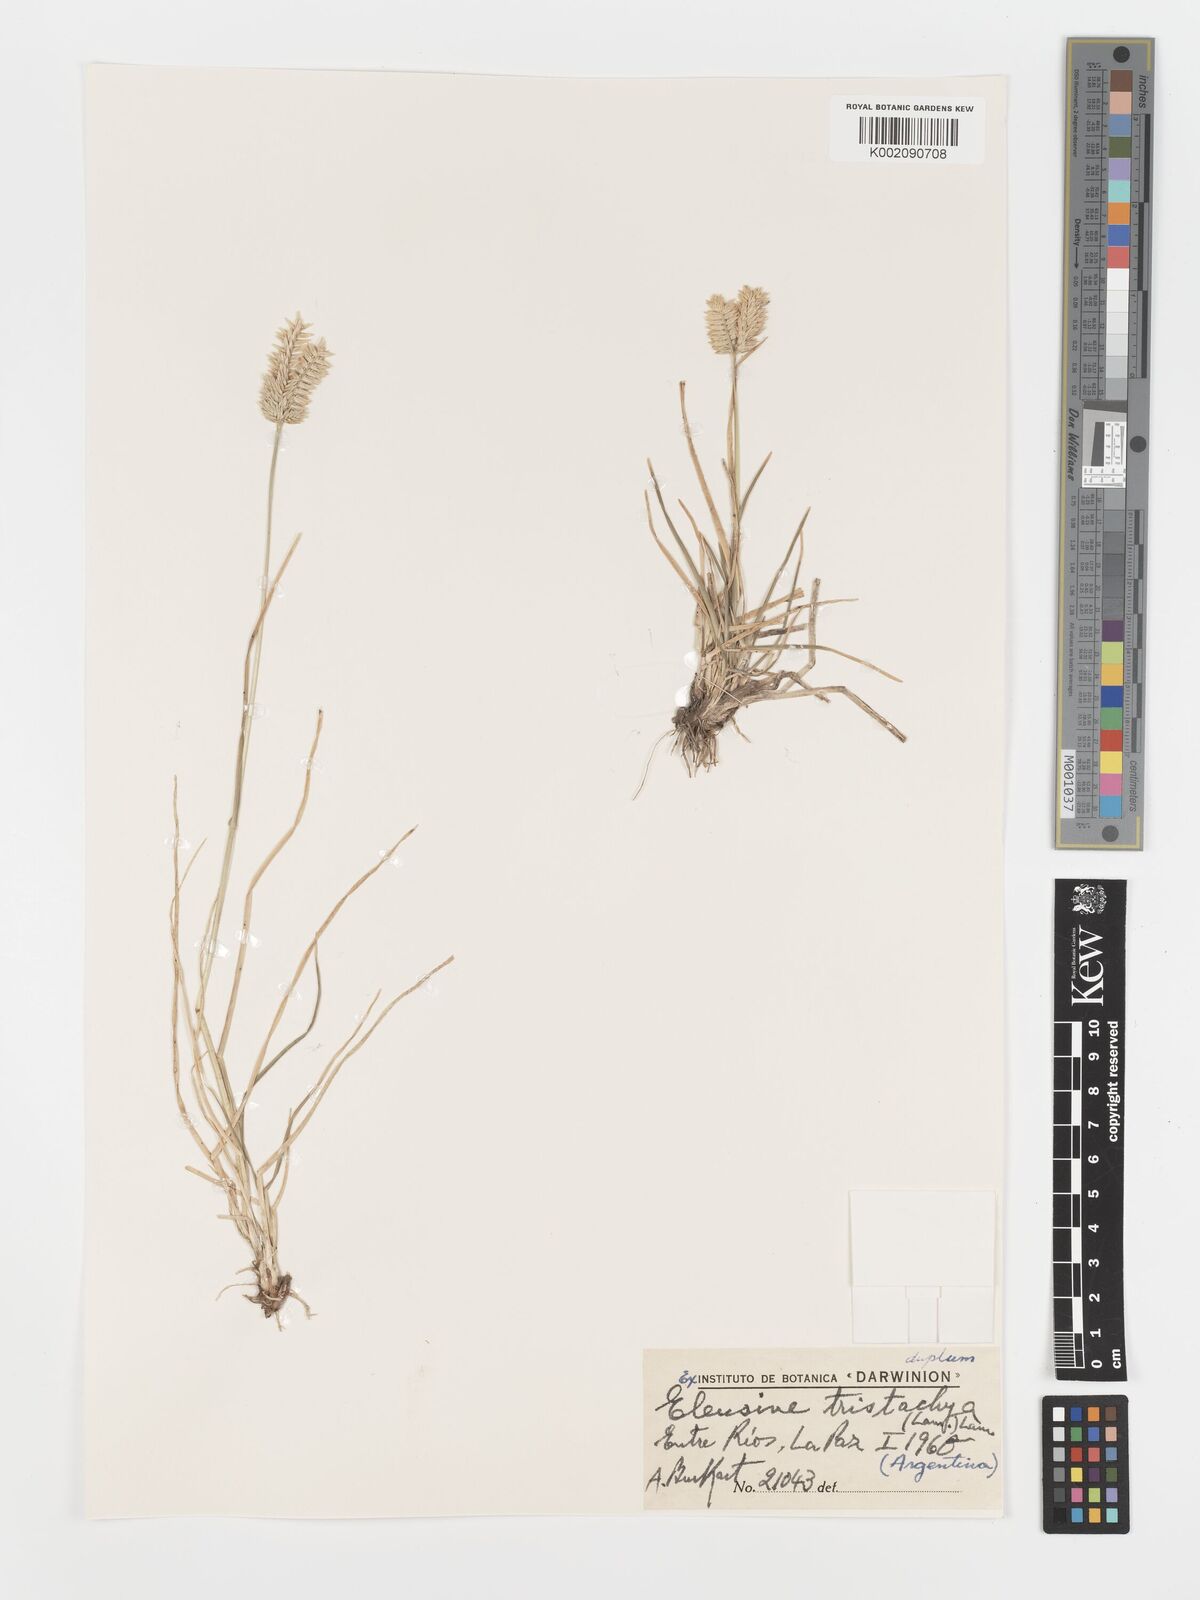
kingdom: Plantae
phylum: Tracheophyta
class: Liliopsida
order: Poales
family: Poaceae
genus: Eleusine
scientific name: Eleusine tristachya
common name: American yard-grass
